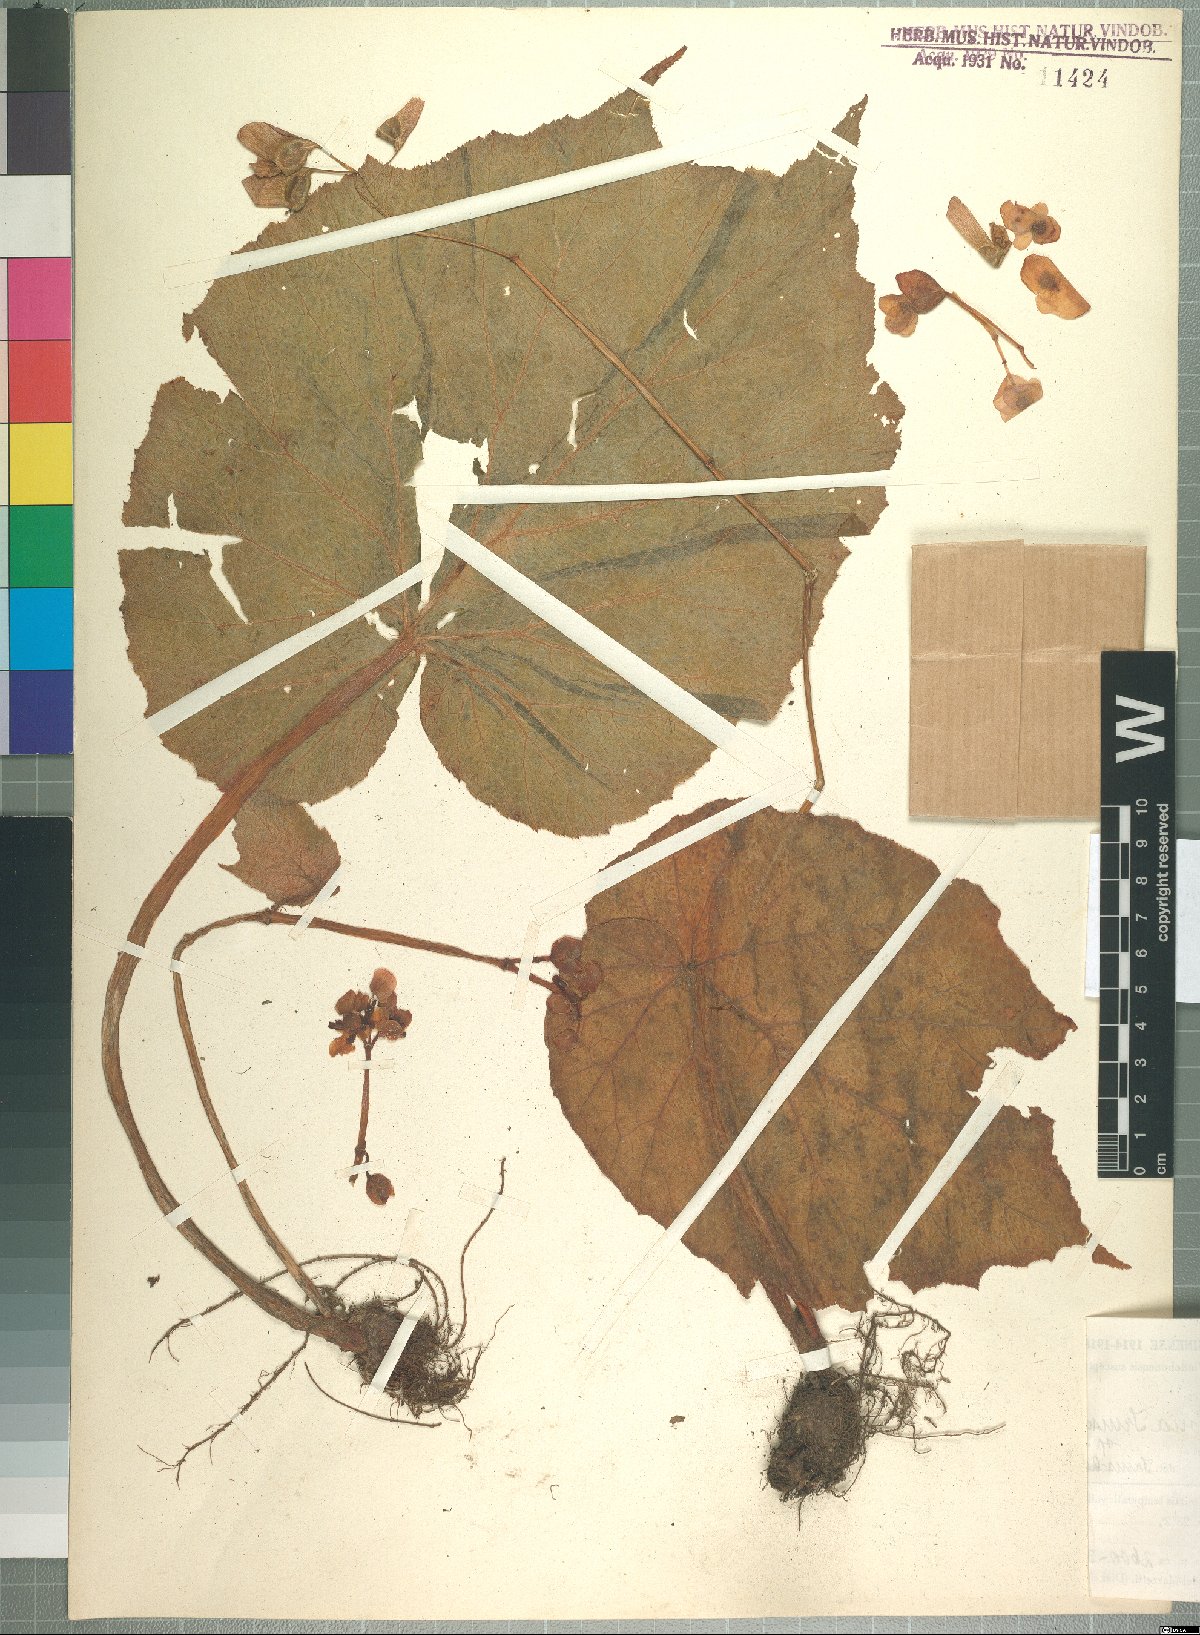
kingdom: Plantae
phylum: Tracheophyta
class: Magnoliopsida
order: Cucurbitales
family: Begoniaceae
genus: Begonia
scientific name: Begonia asperifolia
